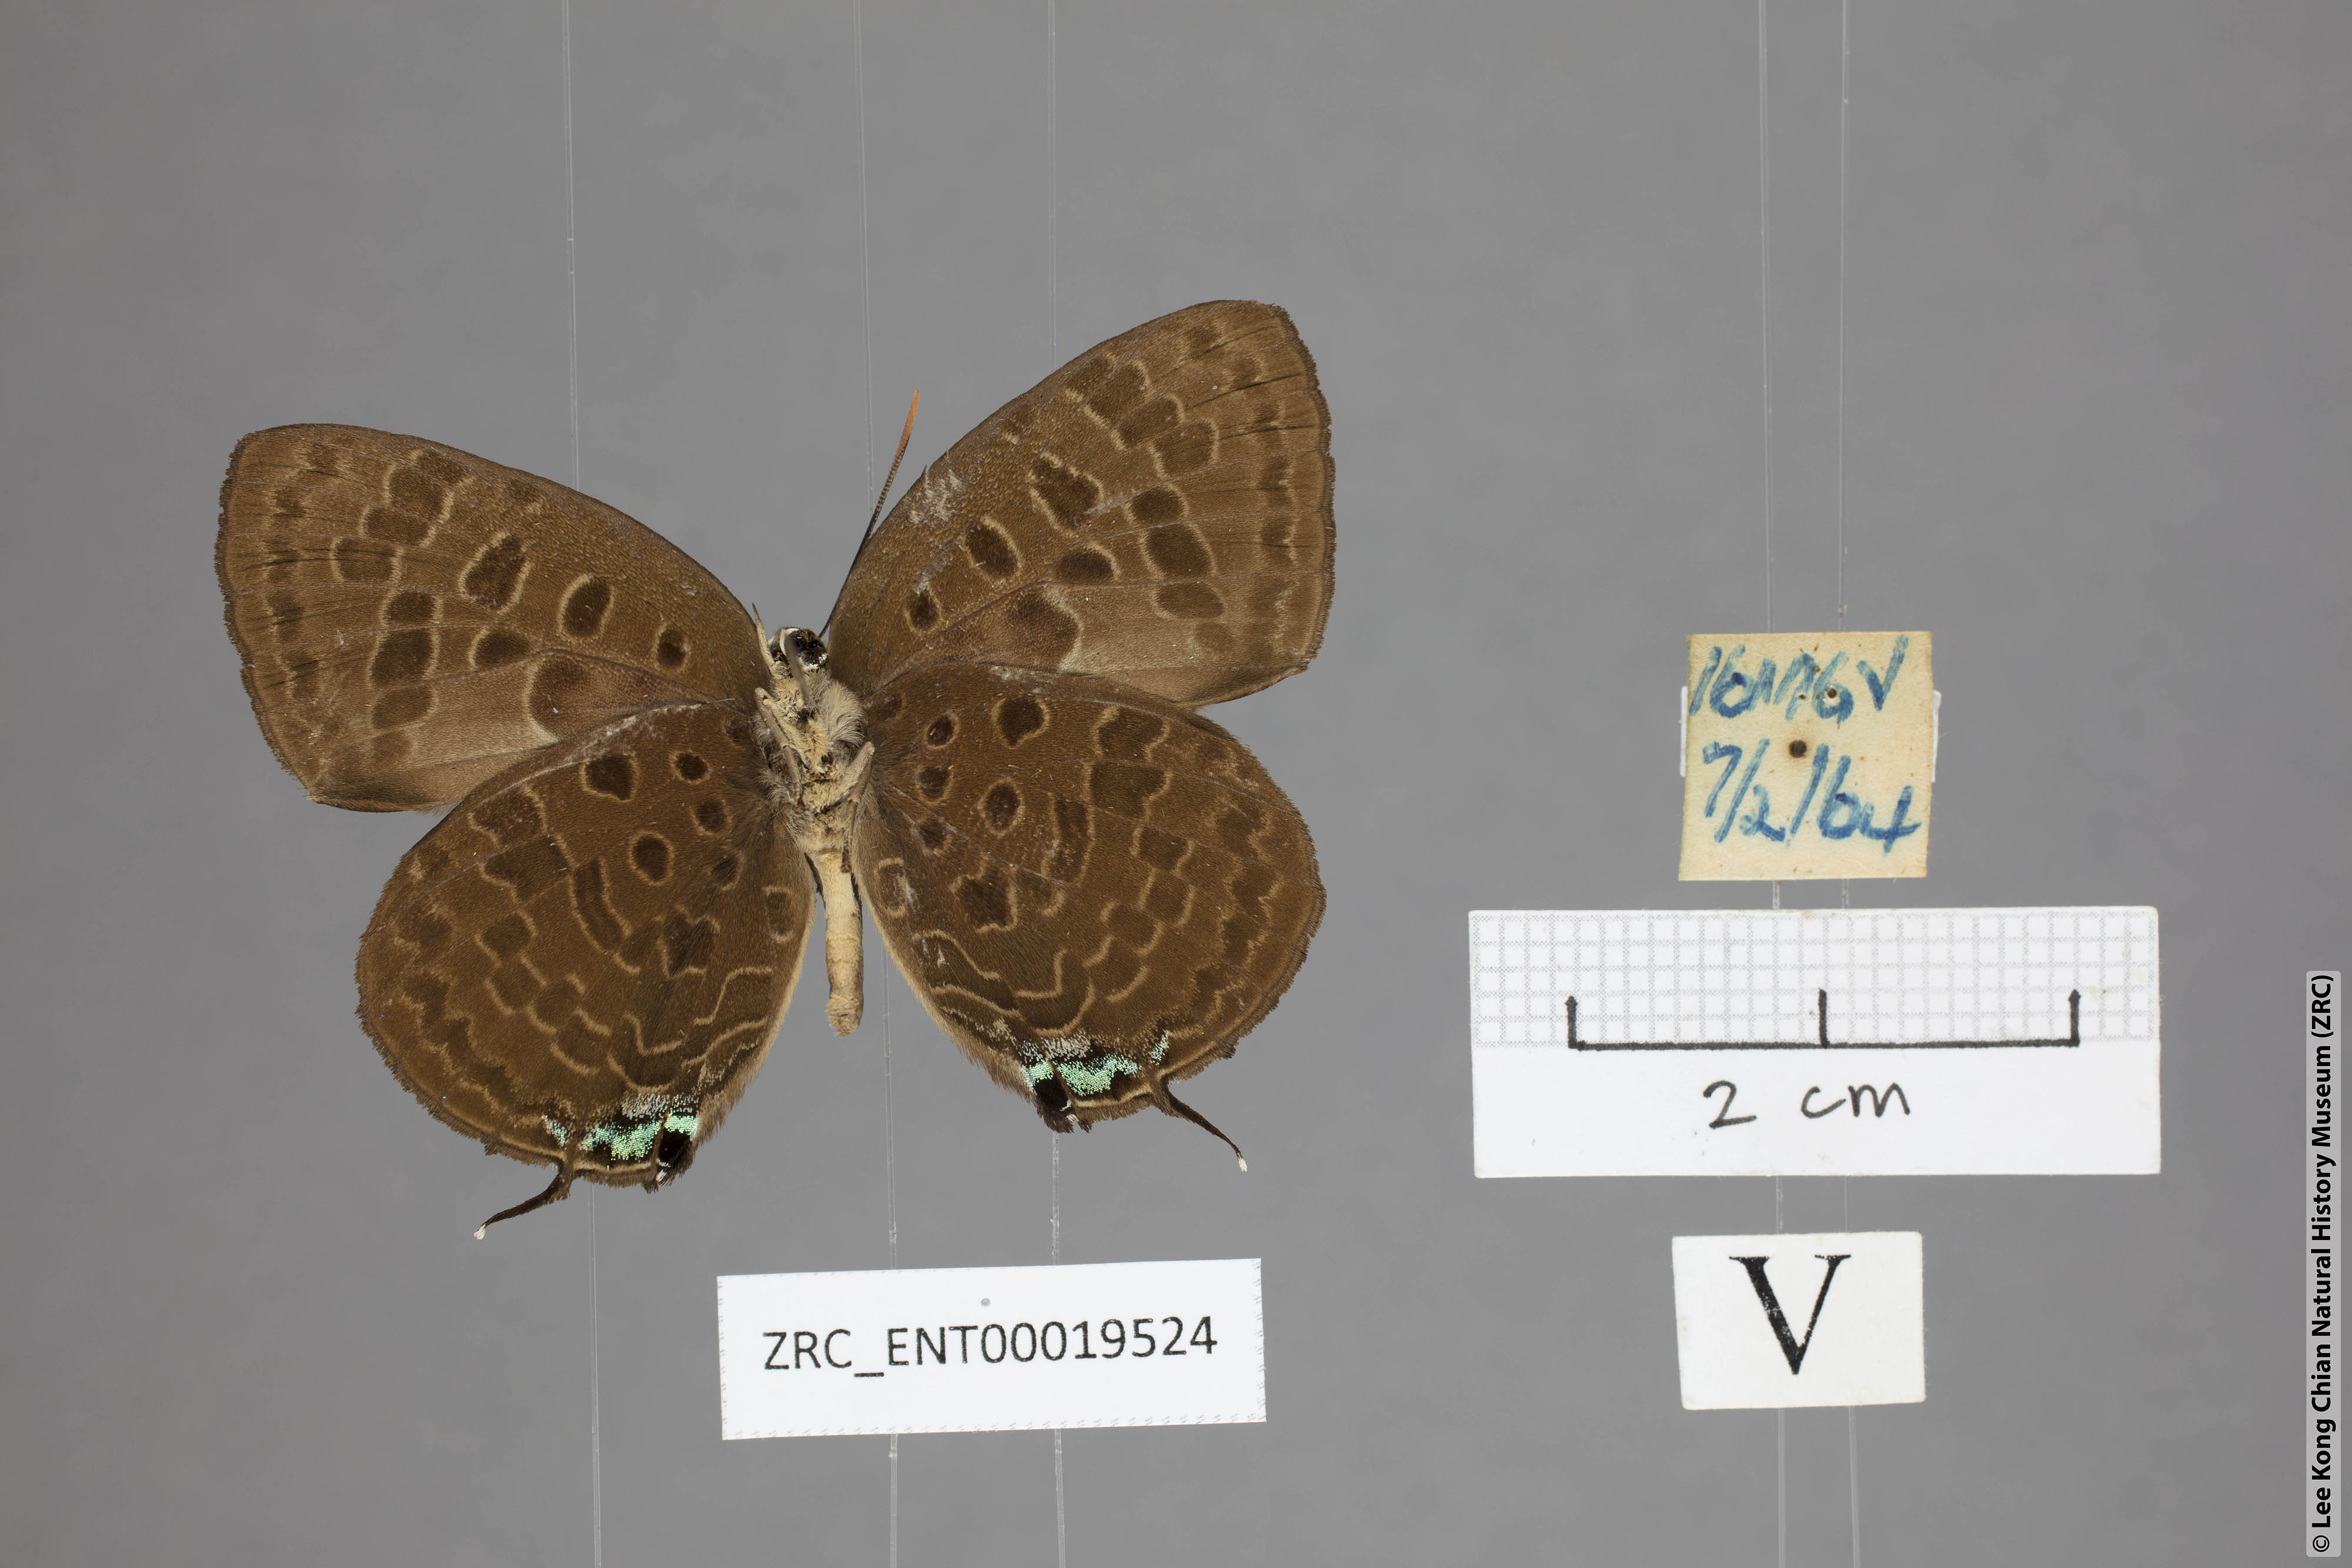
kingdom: Animalia
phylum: Arthropoda
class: Insecta
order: Lepidoptera
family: Lycaenidae
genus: Arhopala
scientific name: Arhopala horsfieldi
